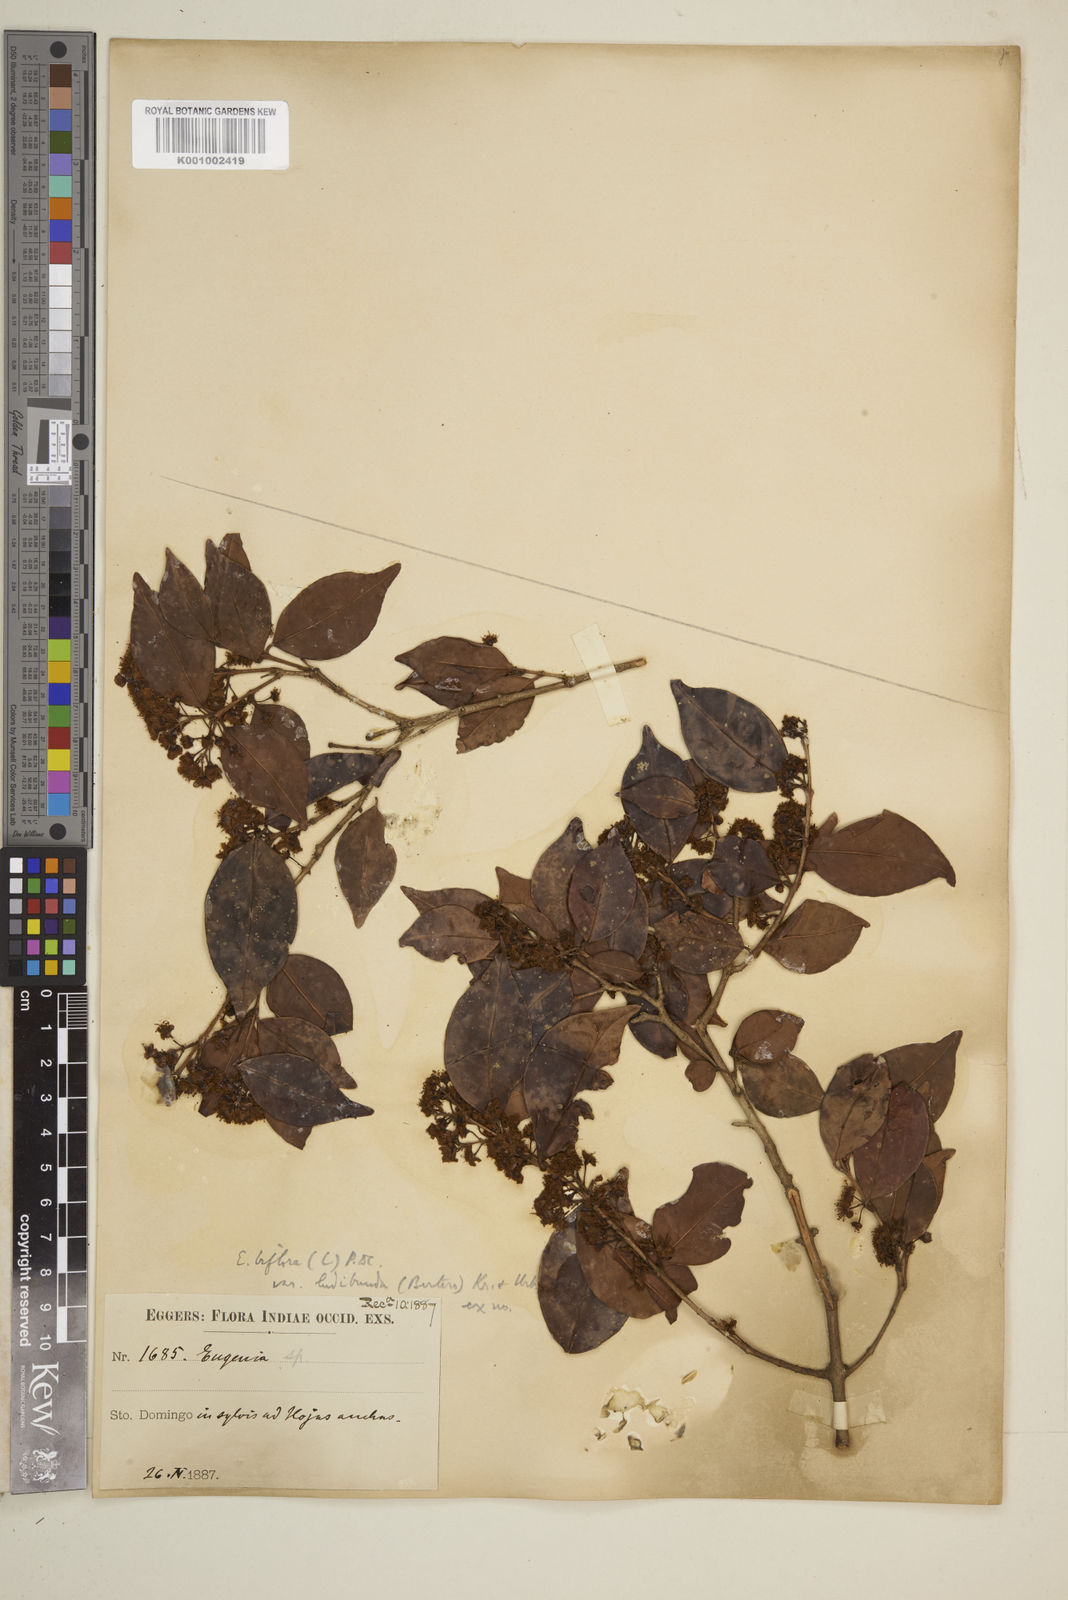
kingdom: Plantae
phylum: Tracheophyta
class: Magnoliopsida
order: Myrtales
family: Myrtaceae
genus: Eugenia
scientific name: Eugenia biflora
